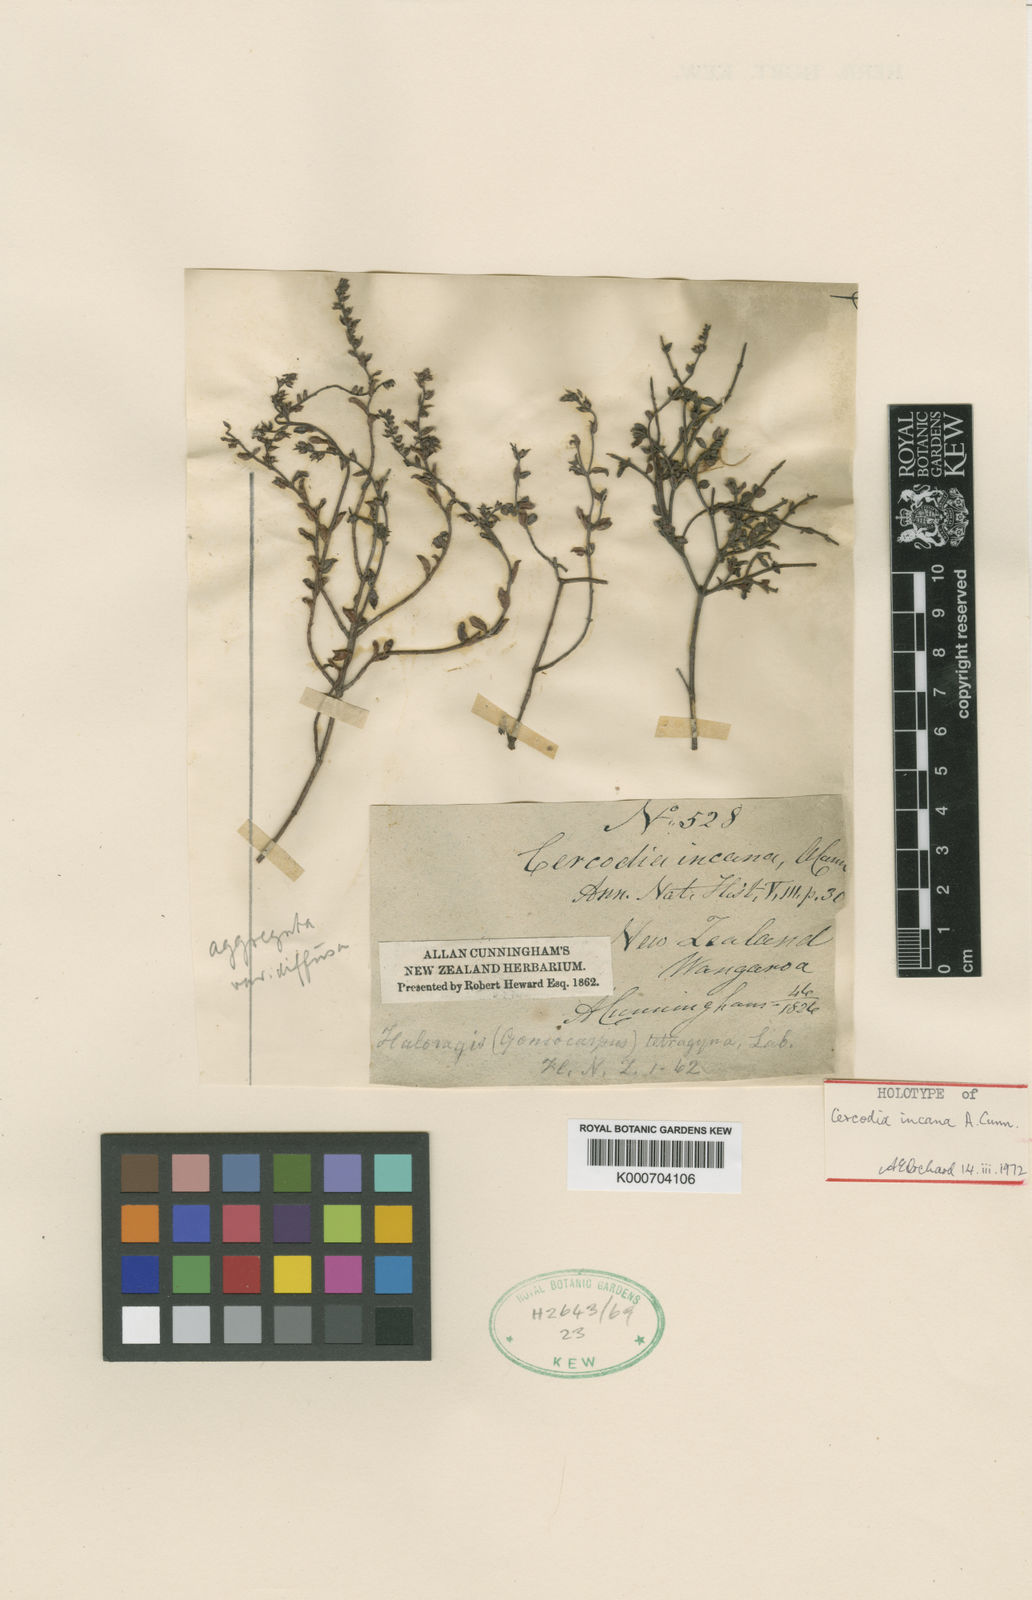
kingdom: Plantae
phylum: Tracheophyta
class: Magnoliopsida
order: Saxifragales
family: Haloragaceae
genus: Gonocarpus
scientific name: Gonocarpus incanus
